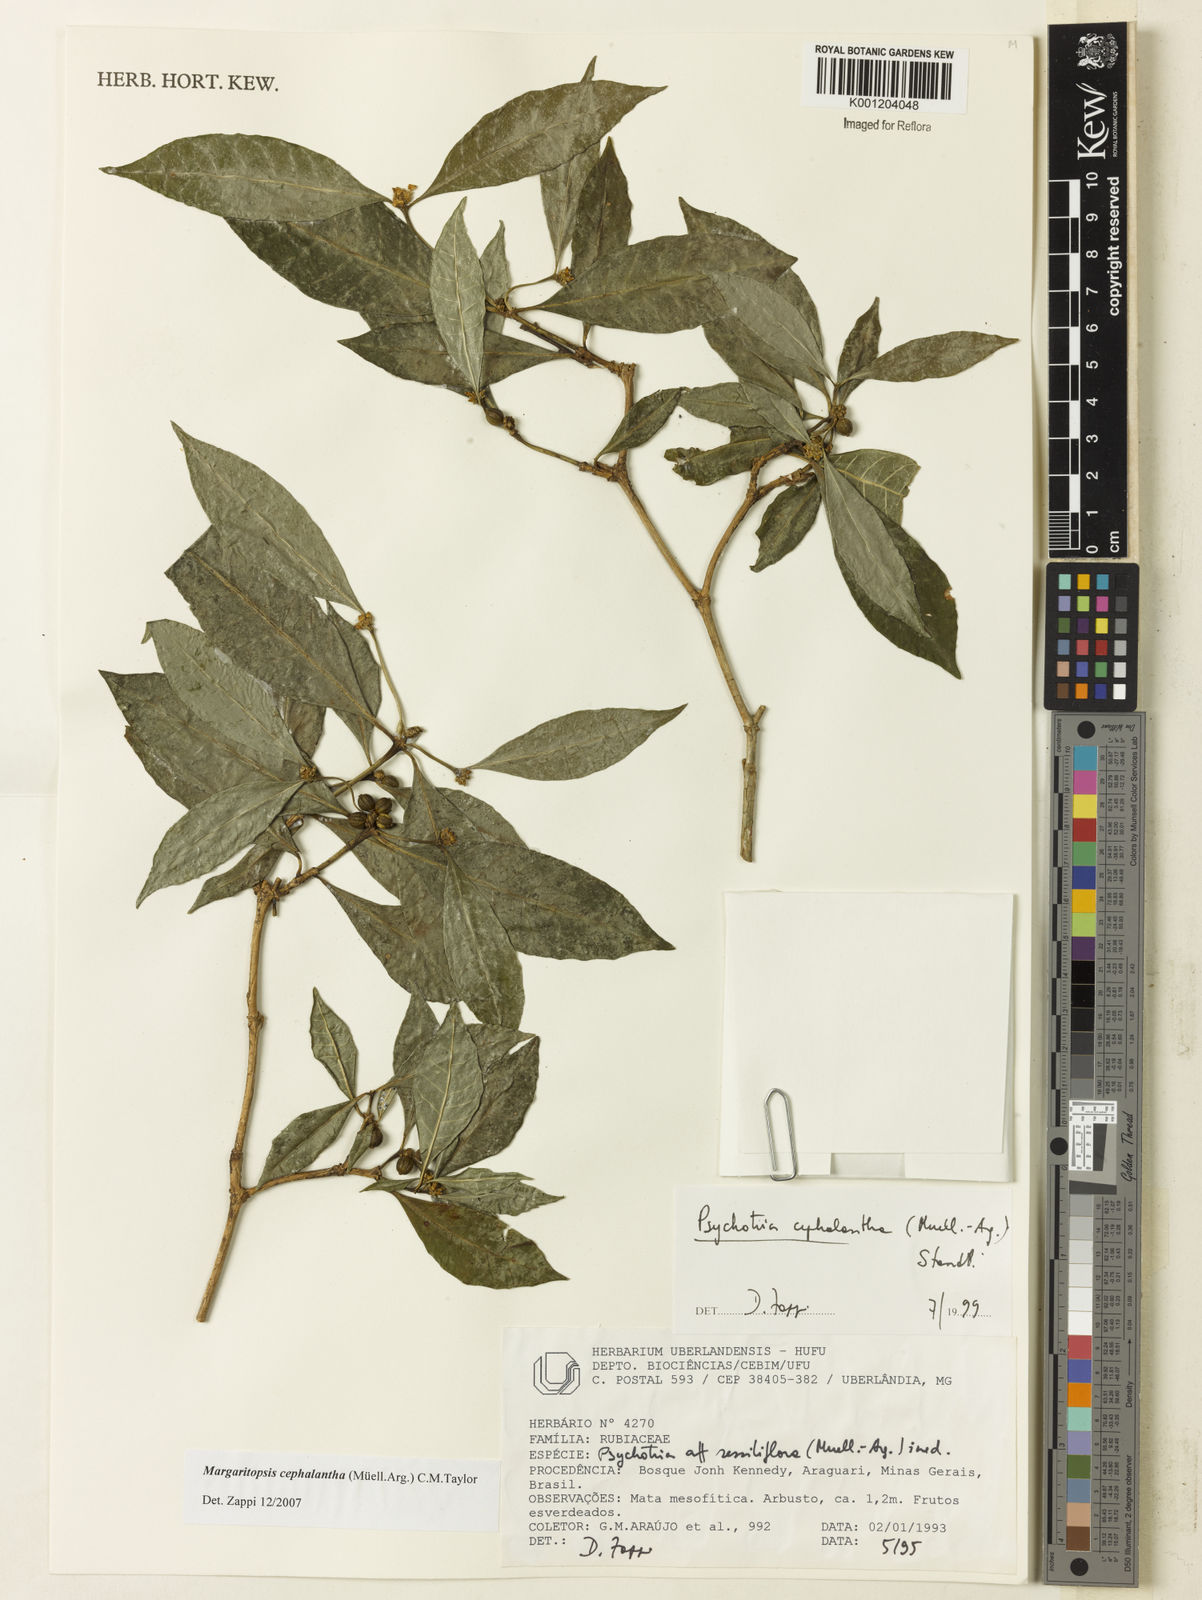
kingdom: Plantae
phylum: Tracheophyta
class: Magnoliopsida
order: Gentianales
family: Rubiaceae
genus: Eumachia
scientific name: Eumachia
